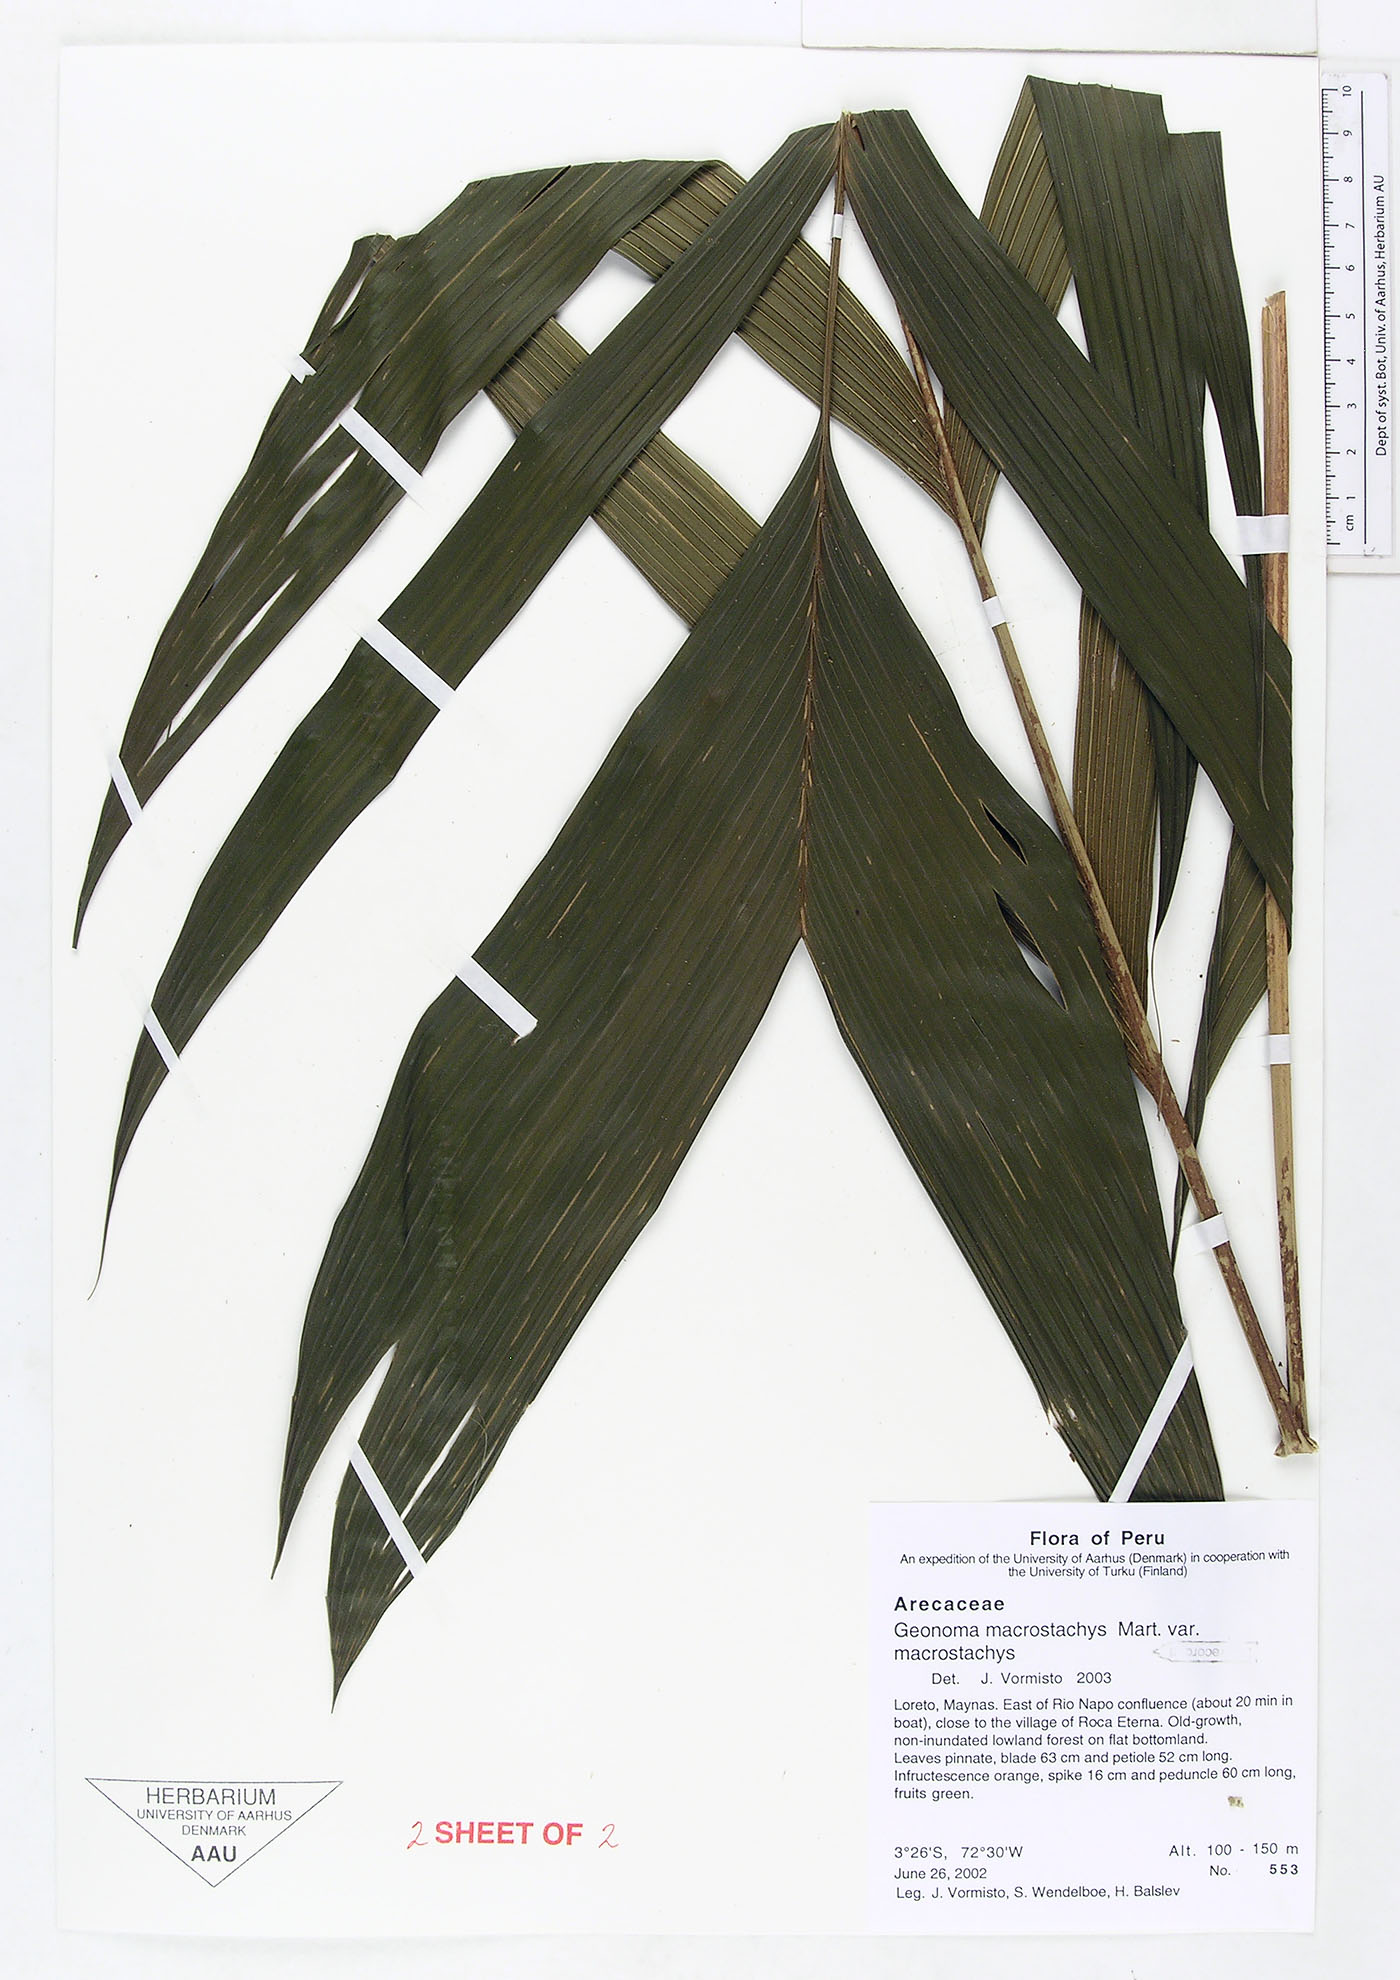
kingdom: Plantae
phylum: Tracheophyta
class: Liliopsida
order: Arecales
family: Arecaceae
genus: Geonoma
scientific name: Geonoma macrostachys
